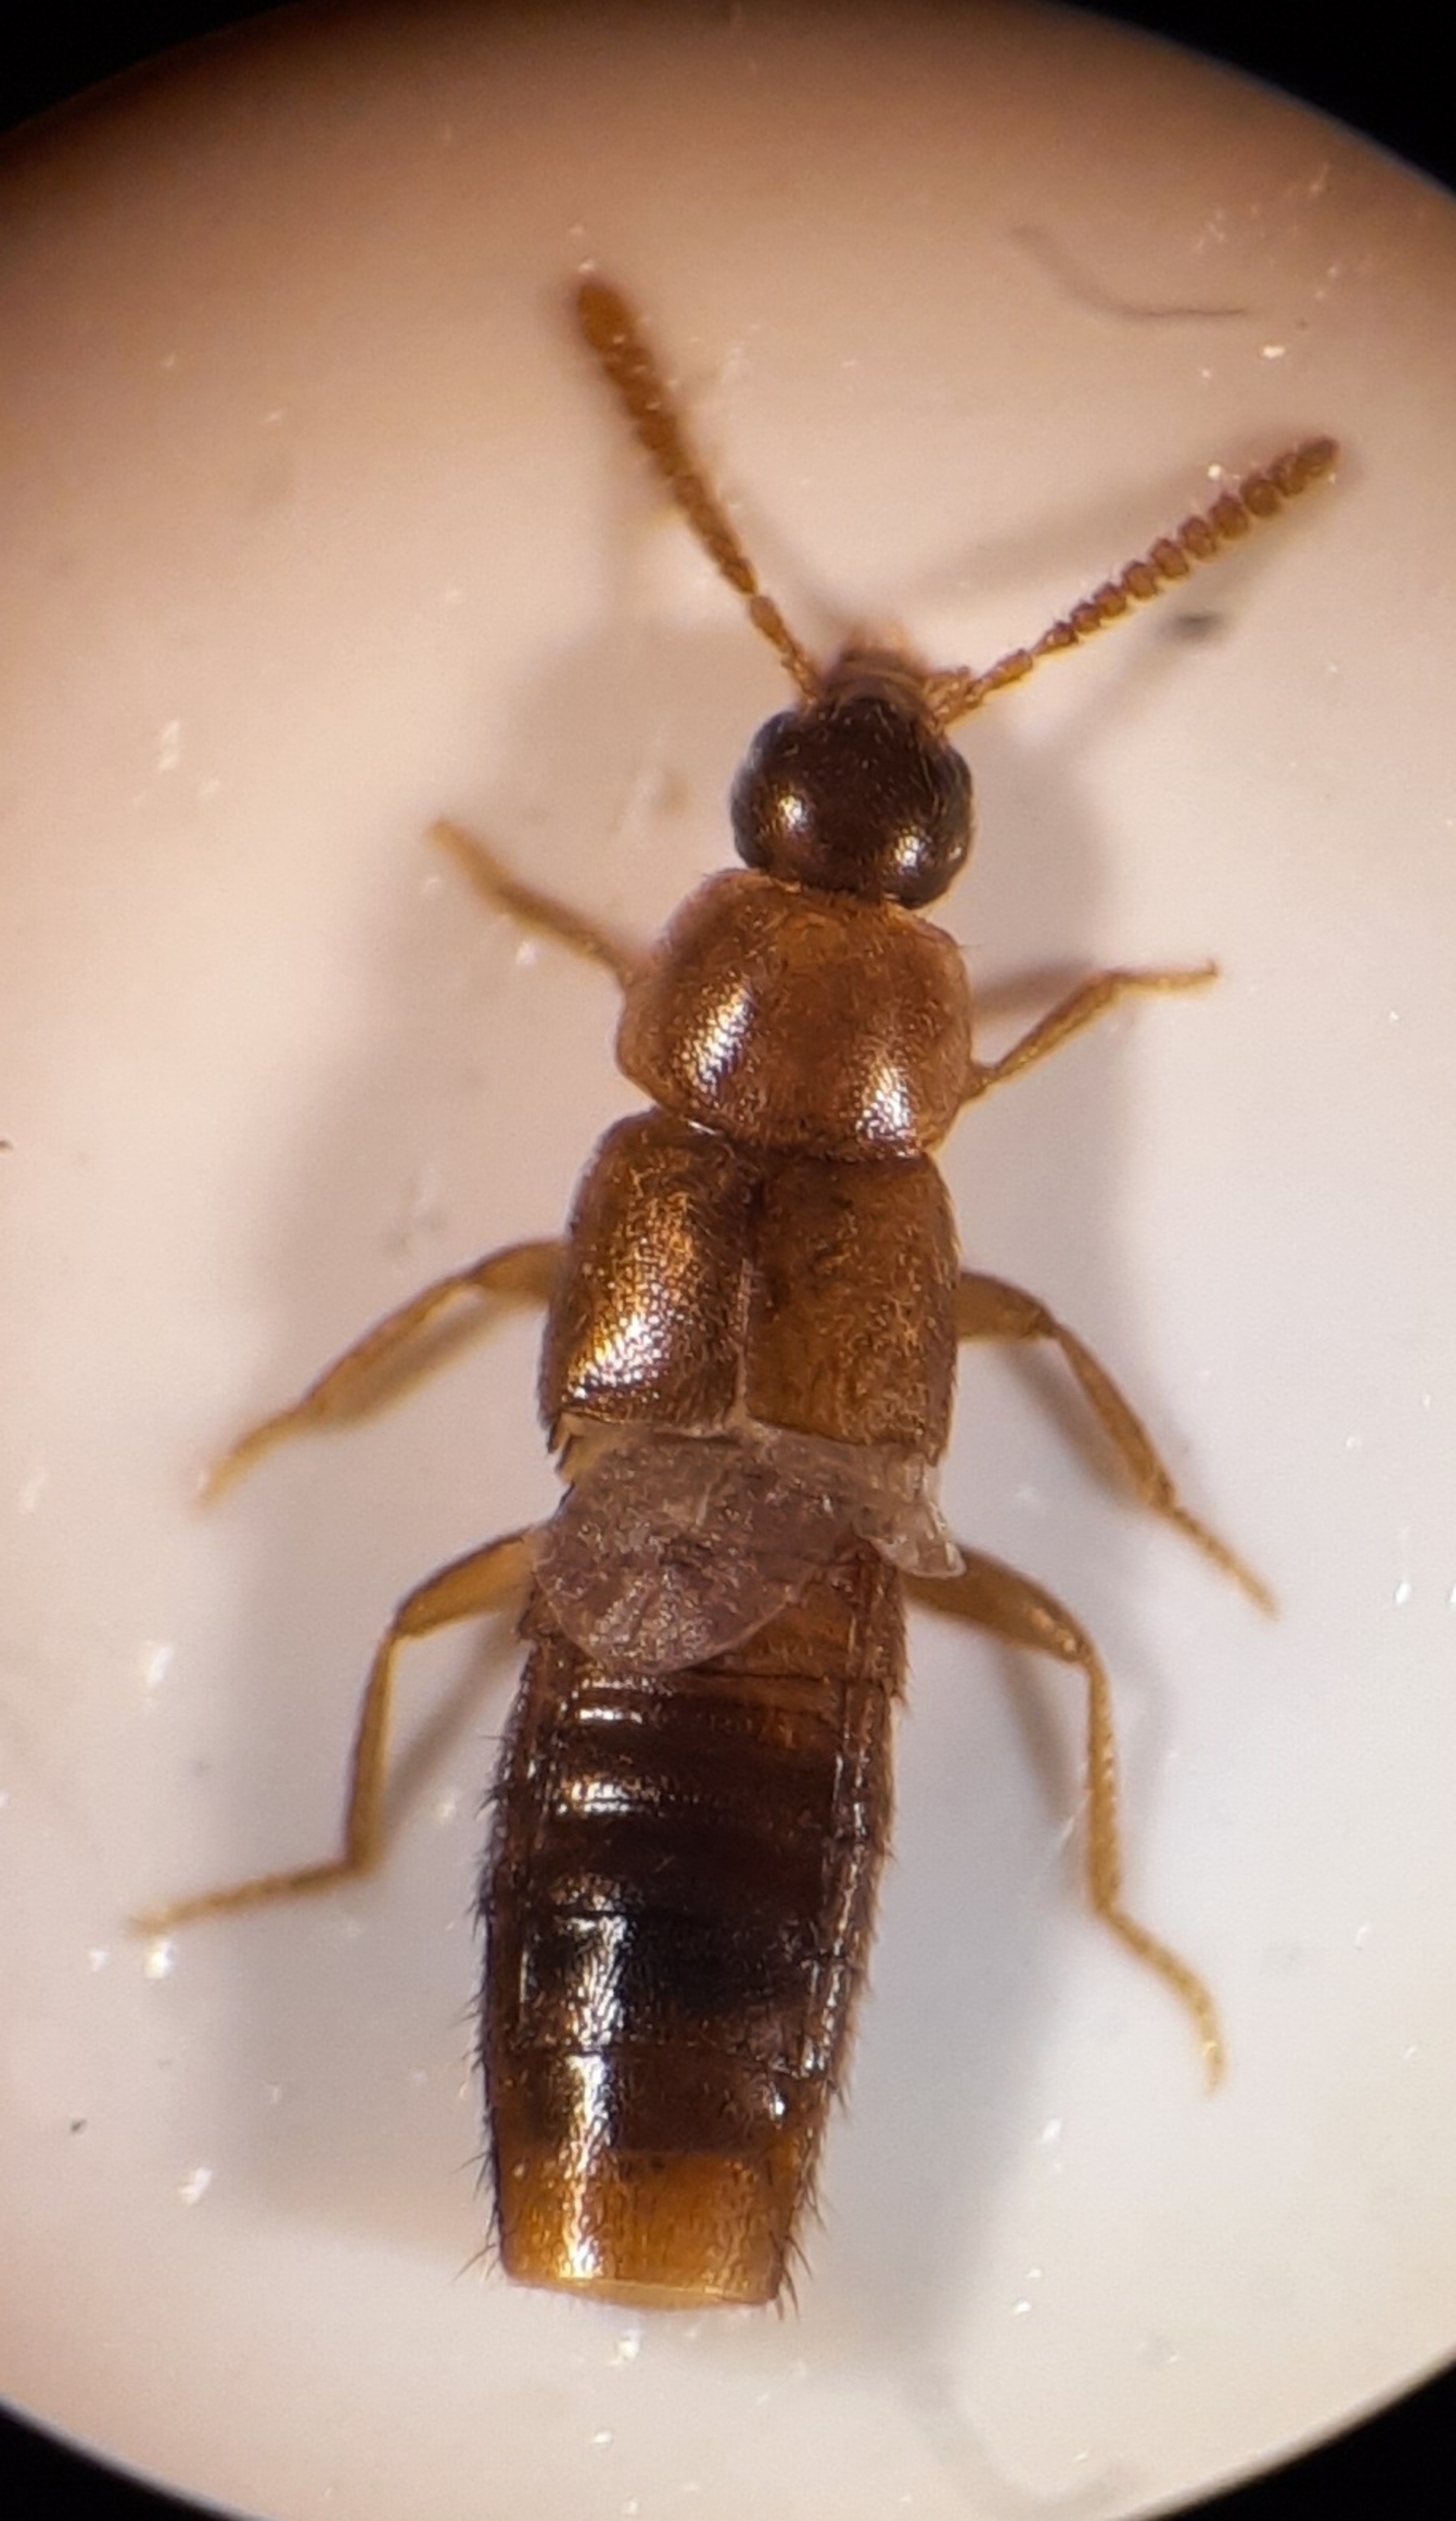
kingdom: Animalia
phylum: Arthropoda
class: Insecta
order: Coleoptera
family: Staphylinidae
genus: Oxypoda
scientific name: Oxypoda recondita
